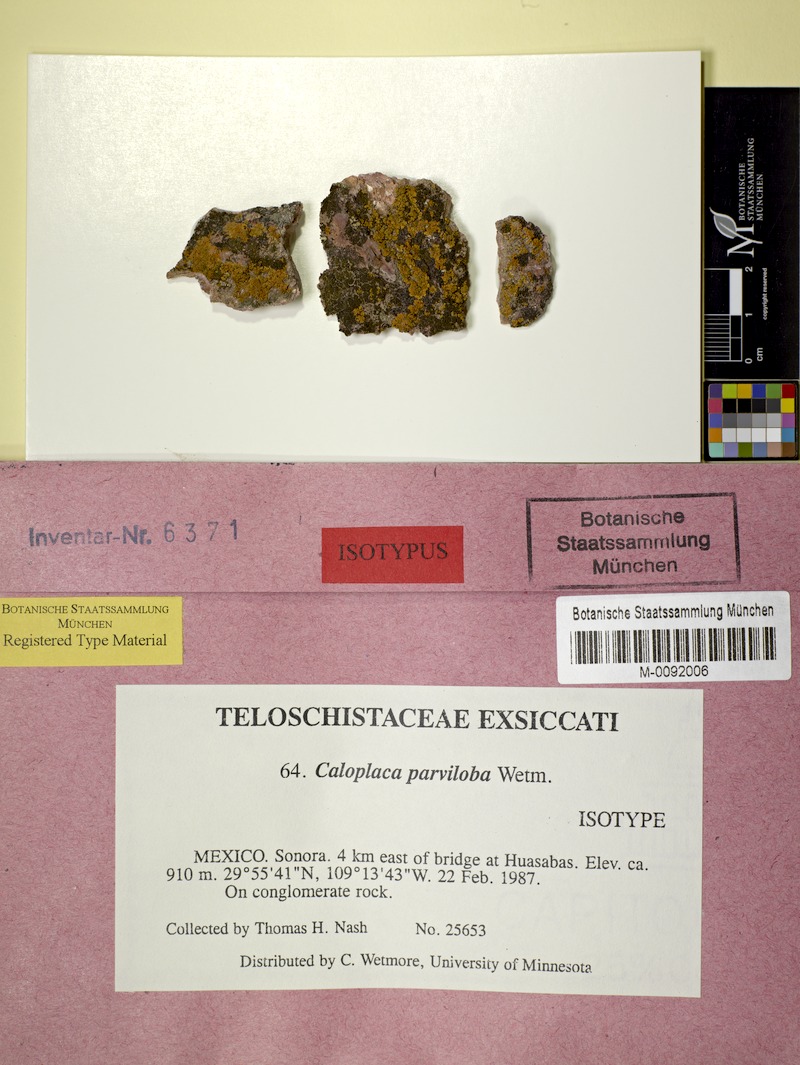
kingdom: Fungi
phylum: Ascomycota
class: Lecanoromycetes
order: Teloschistales
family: Teloschistaceae
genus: Squamulea
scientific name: Squamulea parviloba
